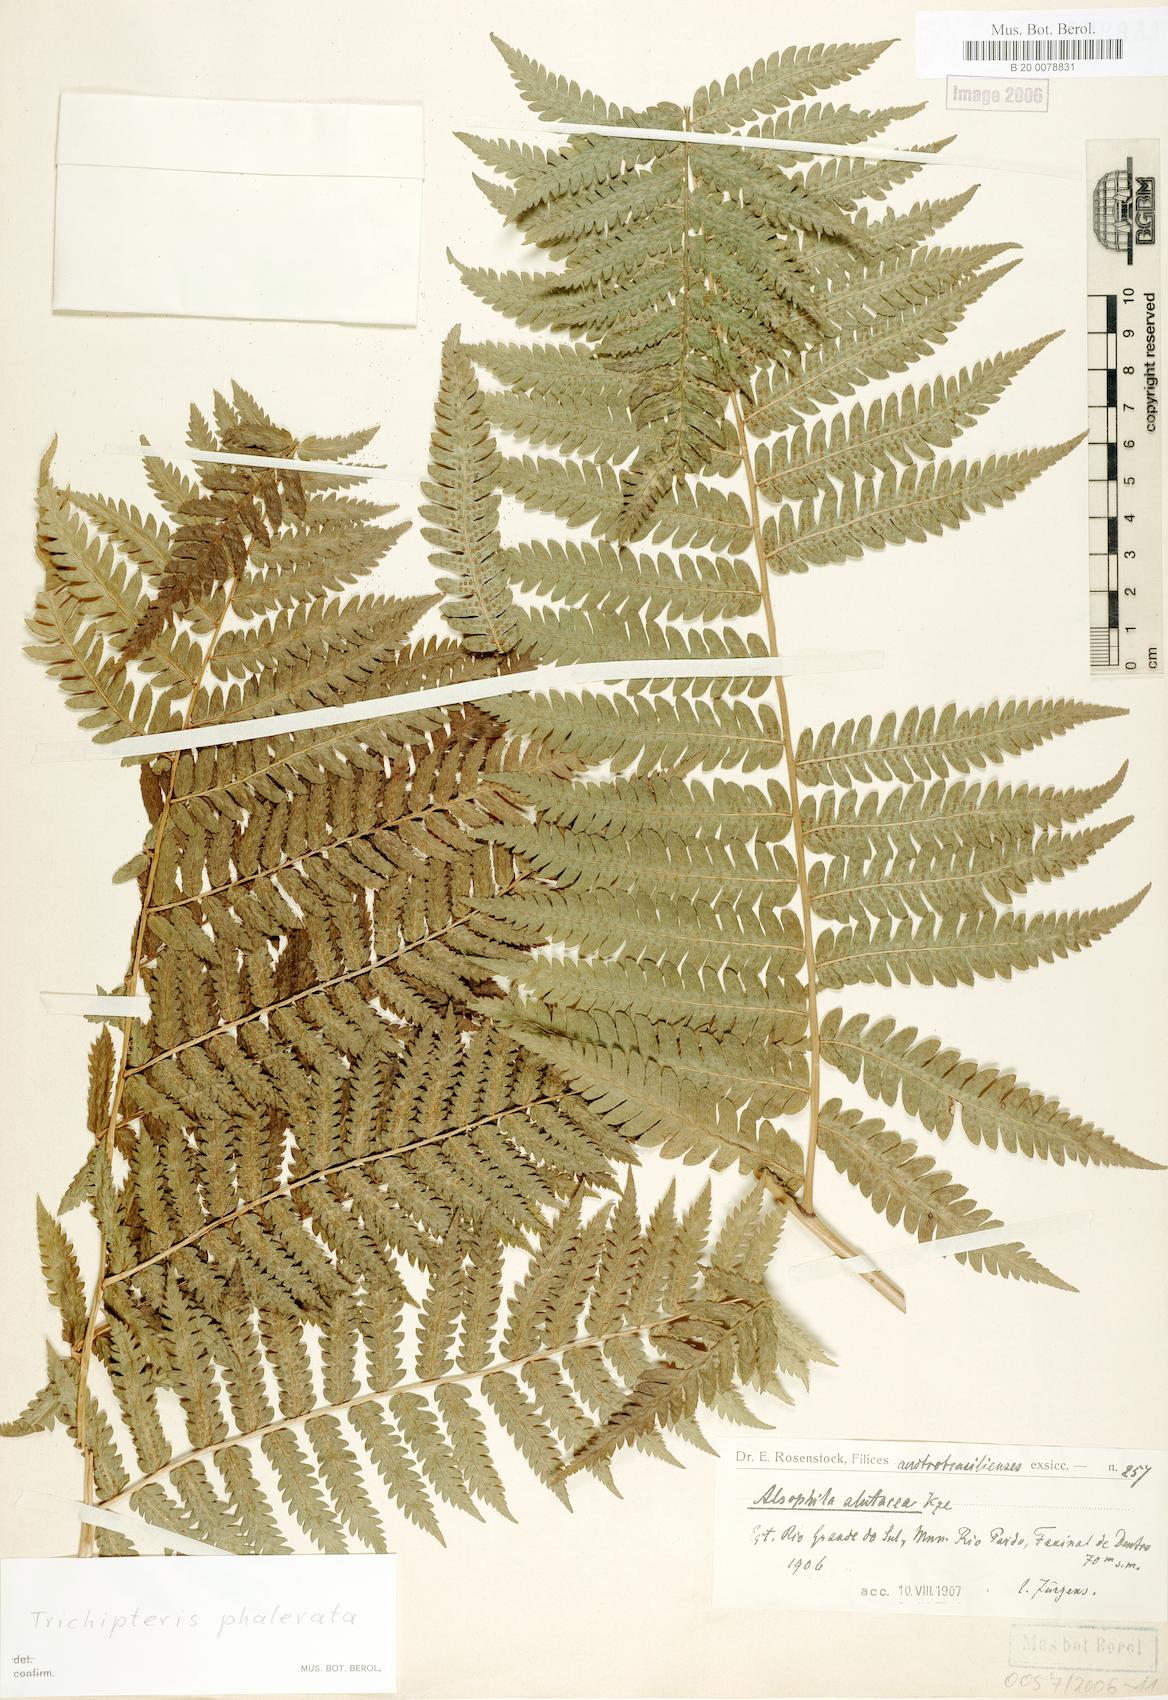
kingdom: Plantae
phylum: Tracheophyta
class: Polypodiopsida
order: Cyatheales
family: Cyatheaceae
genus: Cyathea
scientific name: Cyathea phalerata
